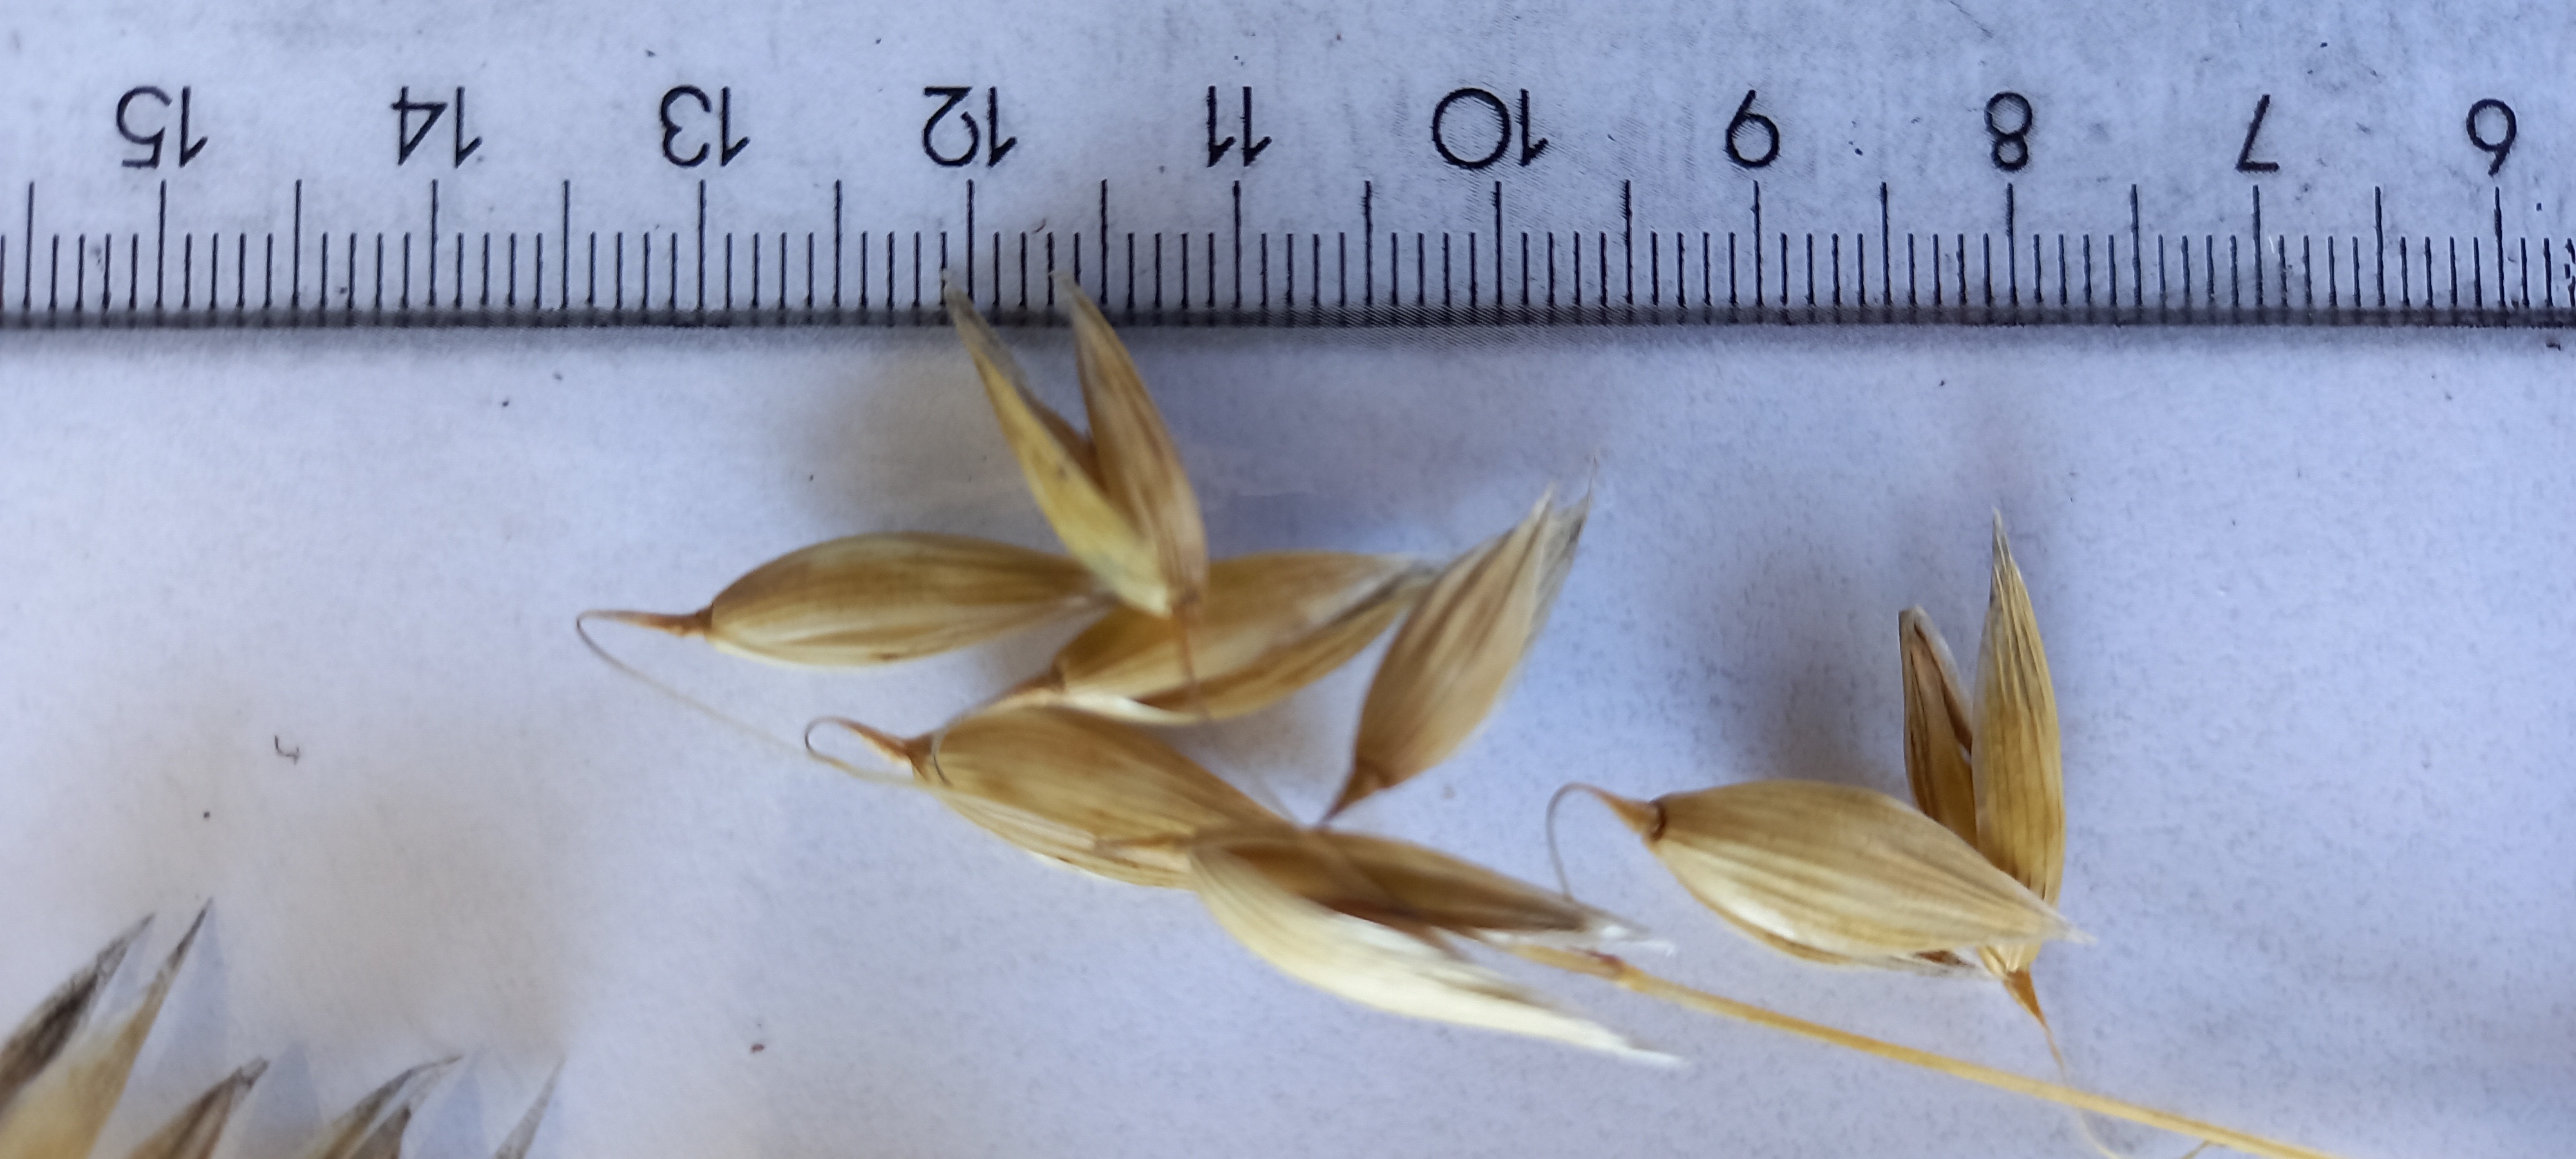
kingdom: Plantae
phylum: Tracheophyta
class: Liliopsida
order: Poales
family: Poaceae
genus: Avena
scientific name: Avena sativa
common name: Oat
